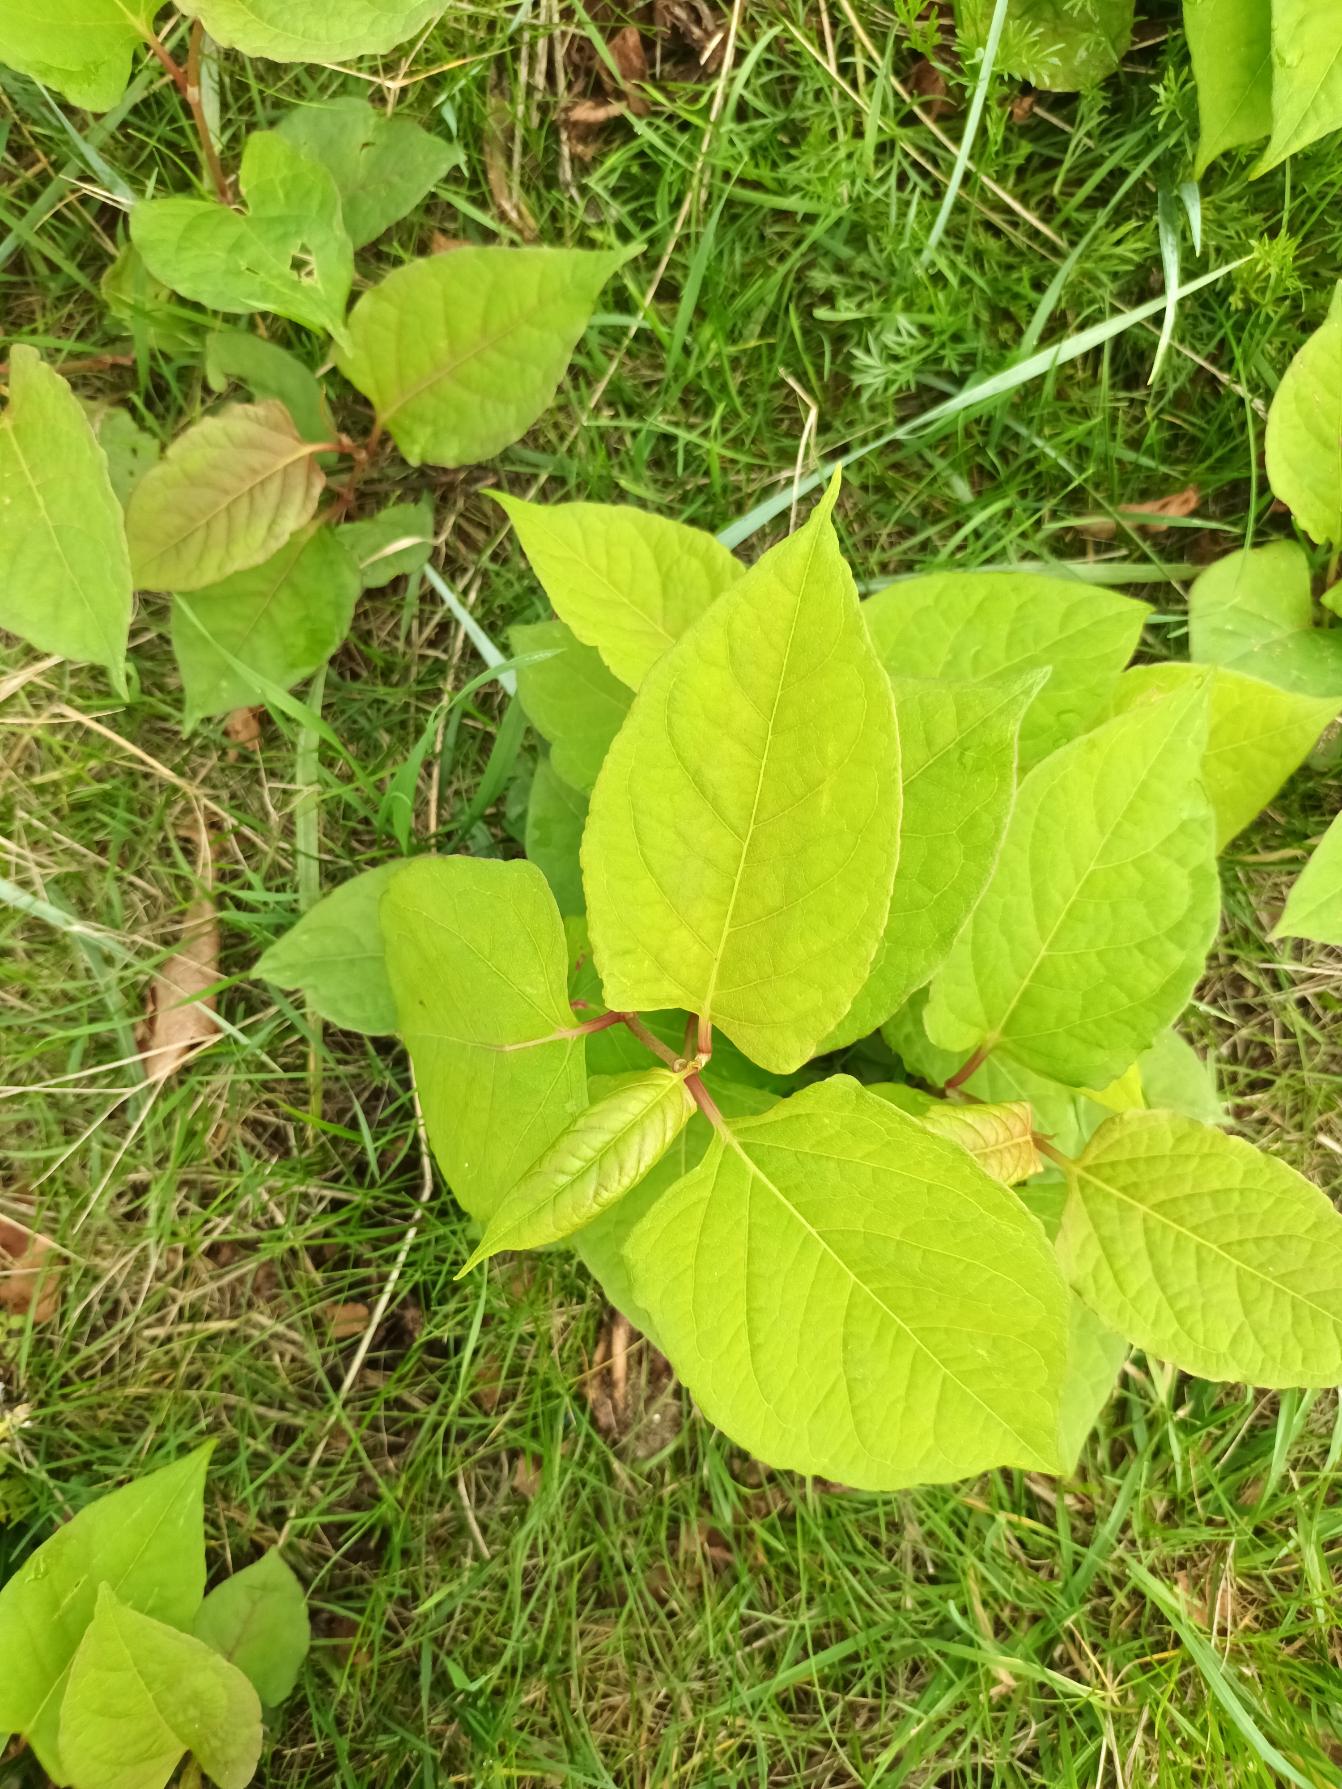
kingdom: Plantae
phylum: Tracheophyta
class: Magnoliopsida
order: Caryophyllales
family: Polygonaceae
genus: Reynoutria
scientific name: Reynoutria japonica
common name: Japan-pileurt
